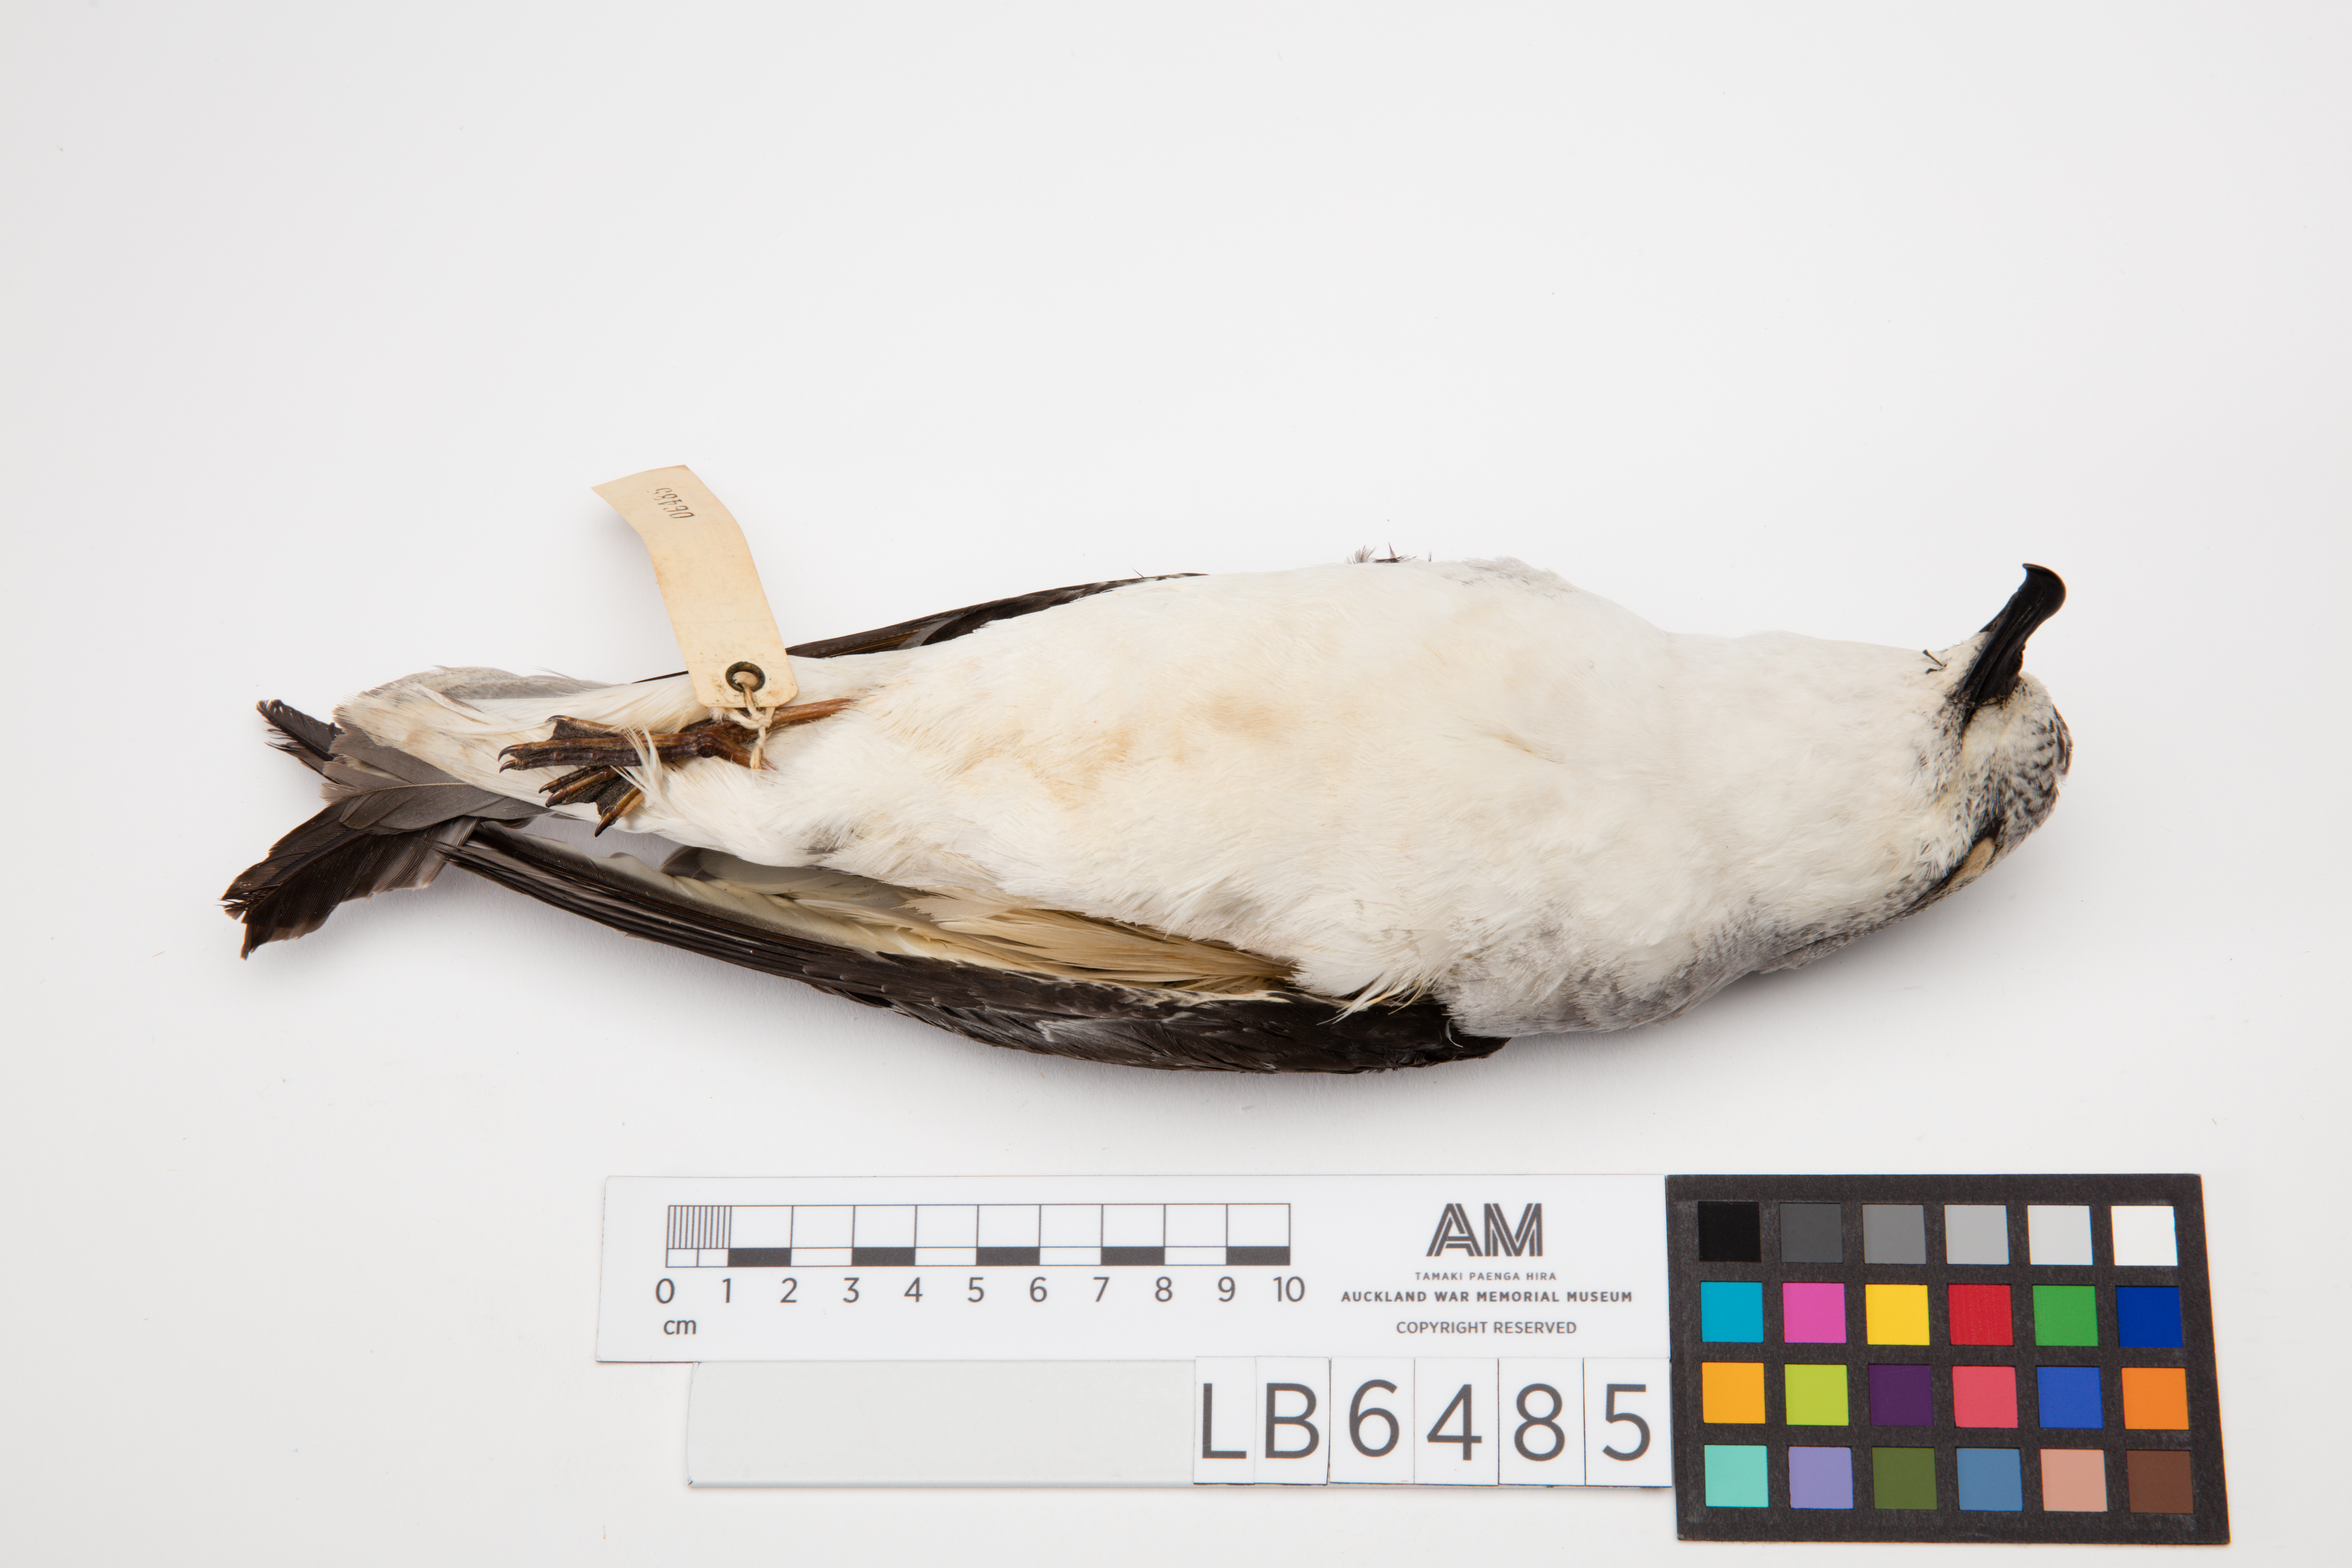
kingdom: Animalia
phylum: Chordata
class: Aves
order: Procellariiformes
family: Procellariidae
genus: Pterodroma
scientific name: Pterodroma cookii
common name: Cook's petrel
